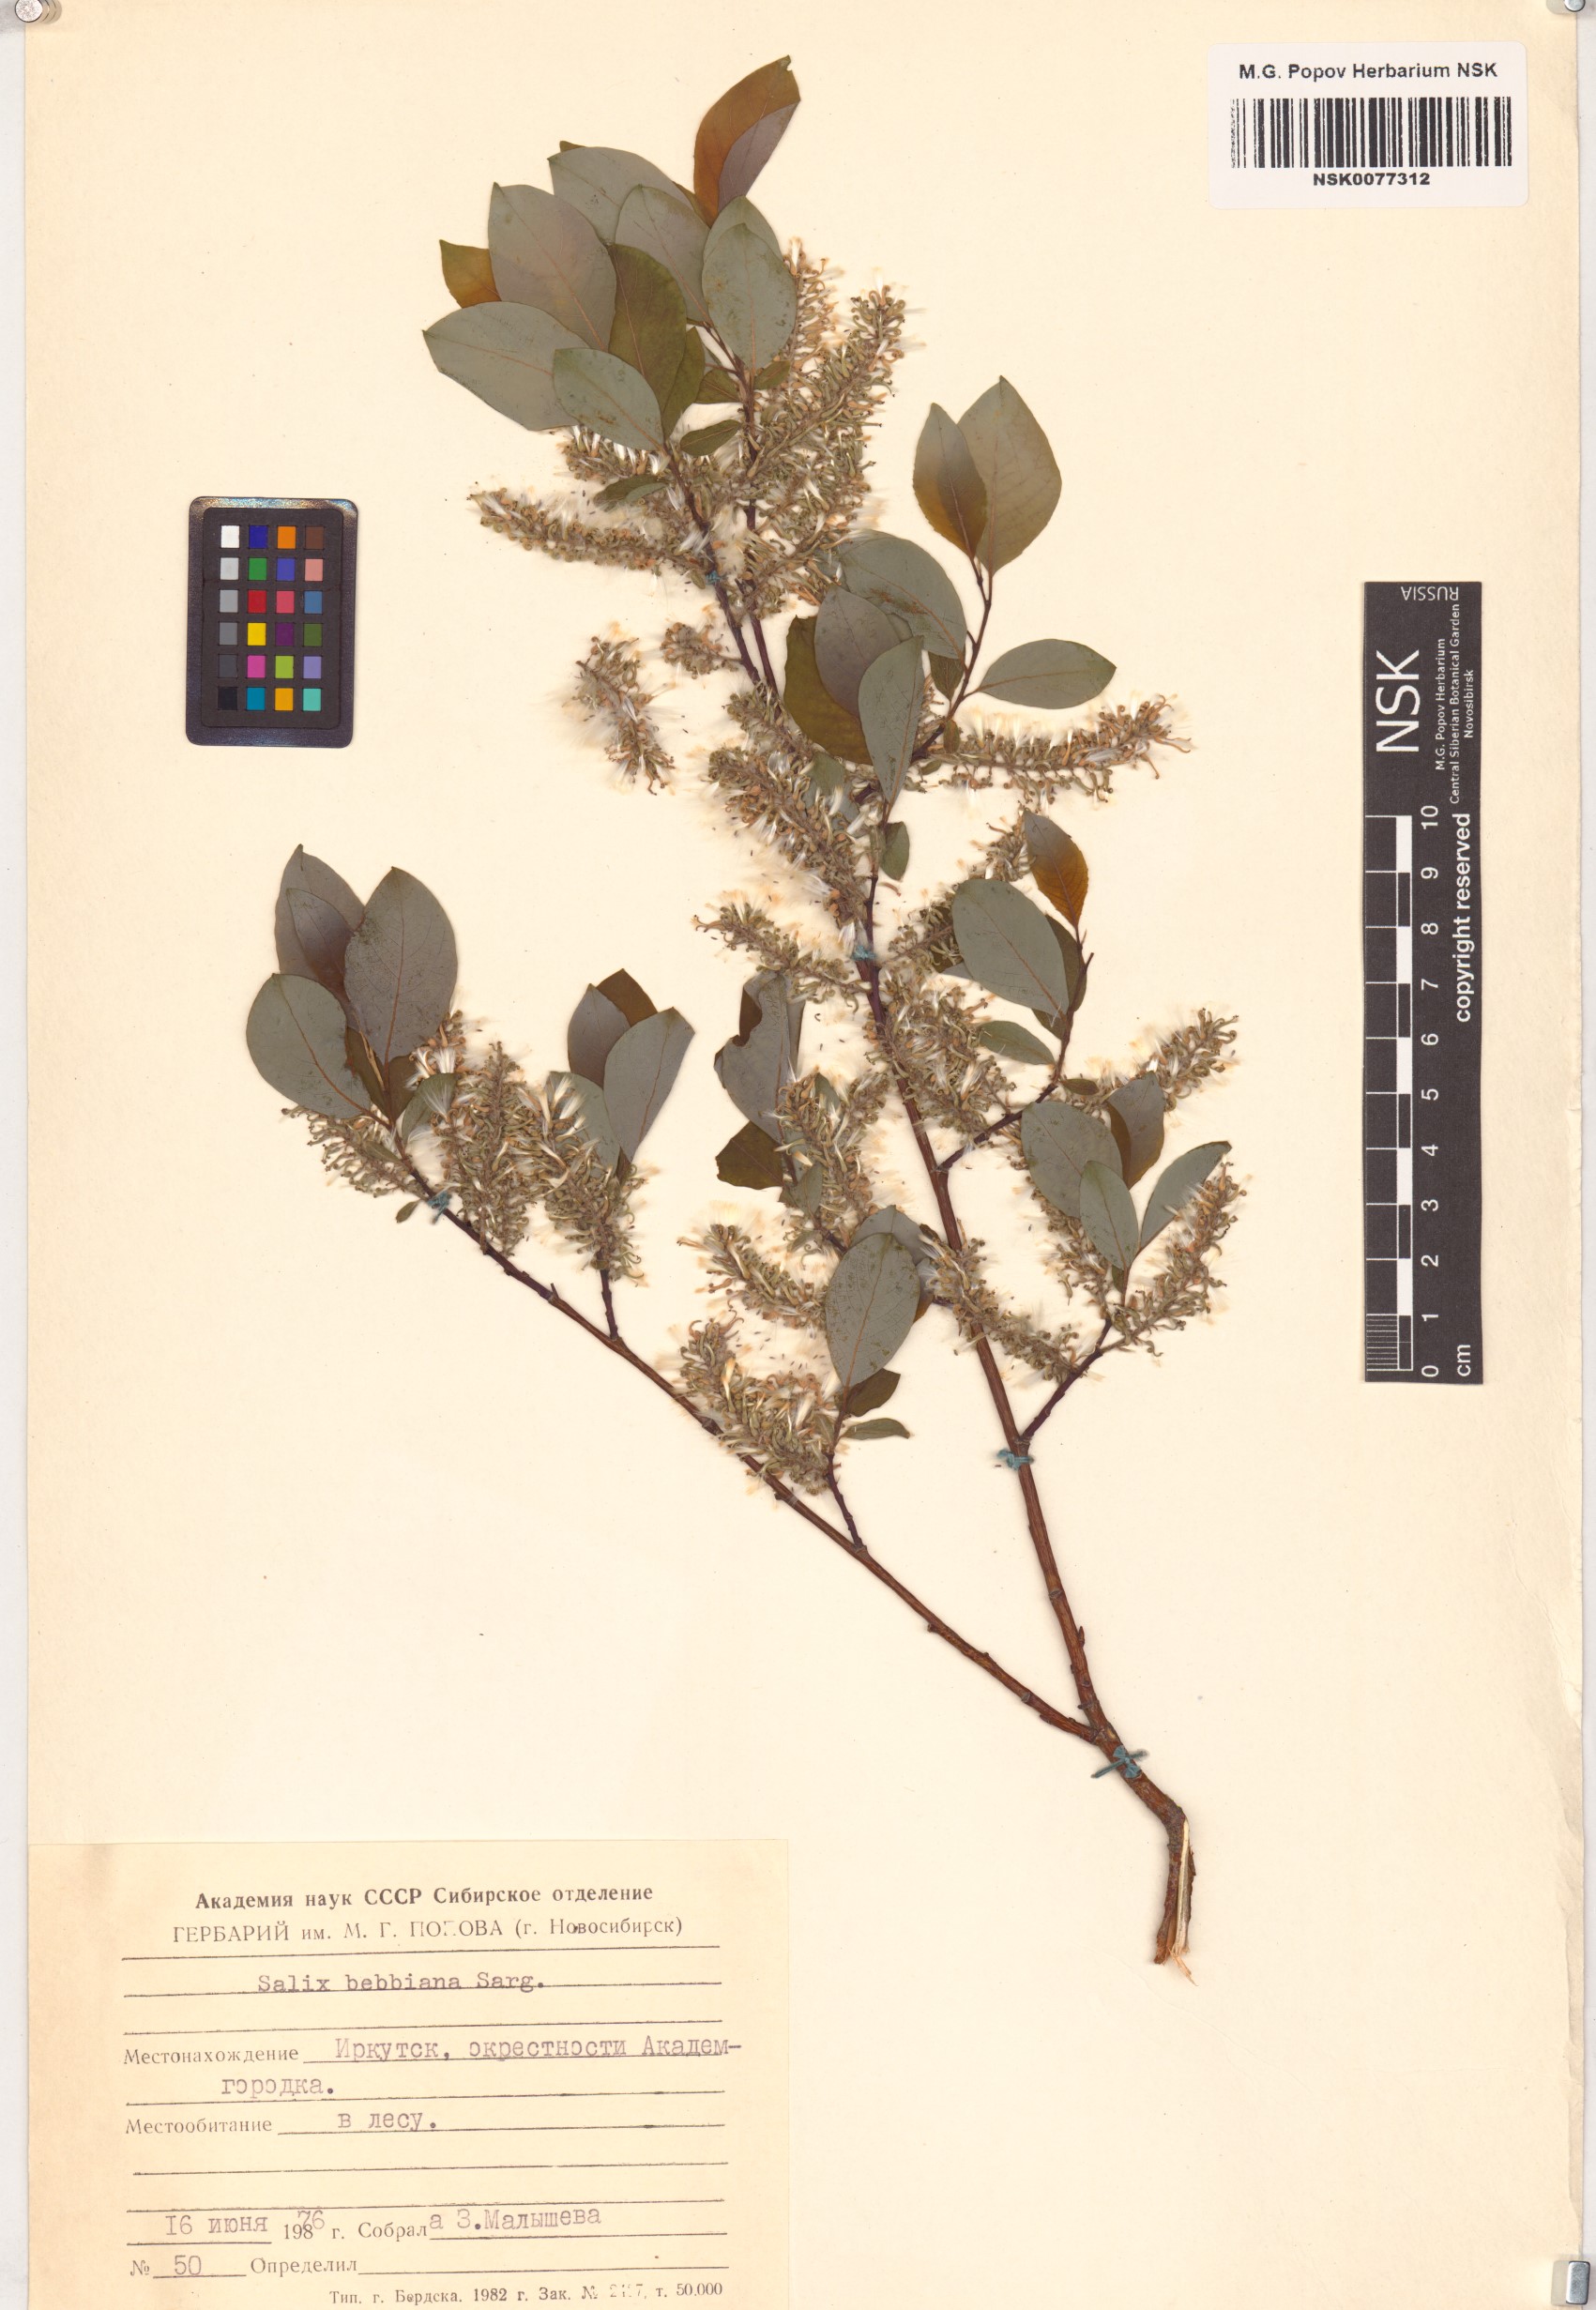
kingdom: Plantae
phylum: Tracheophyta
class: Magnoliopsida
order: Malpighiales
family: Salicaceae
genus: Salix
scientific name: Salix bebbiana
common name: Bebb's willow
